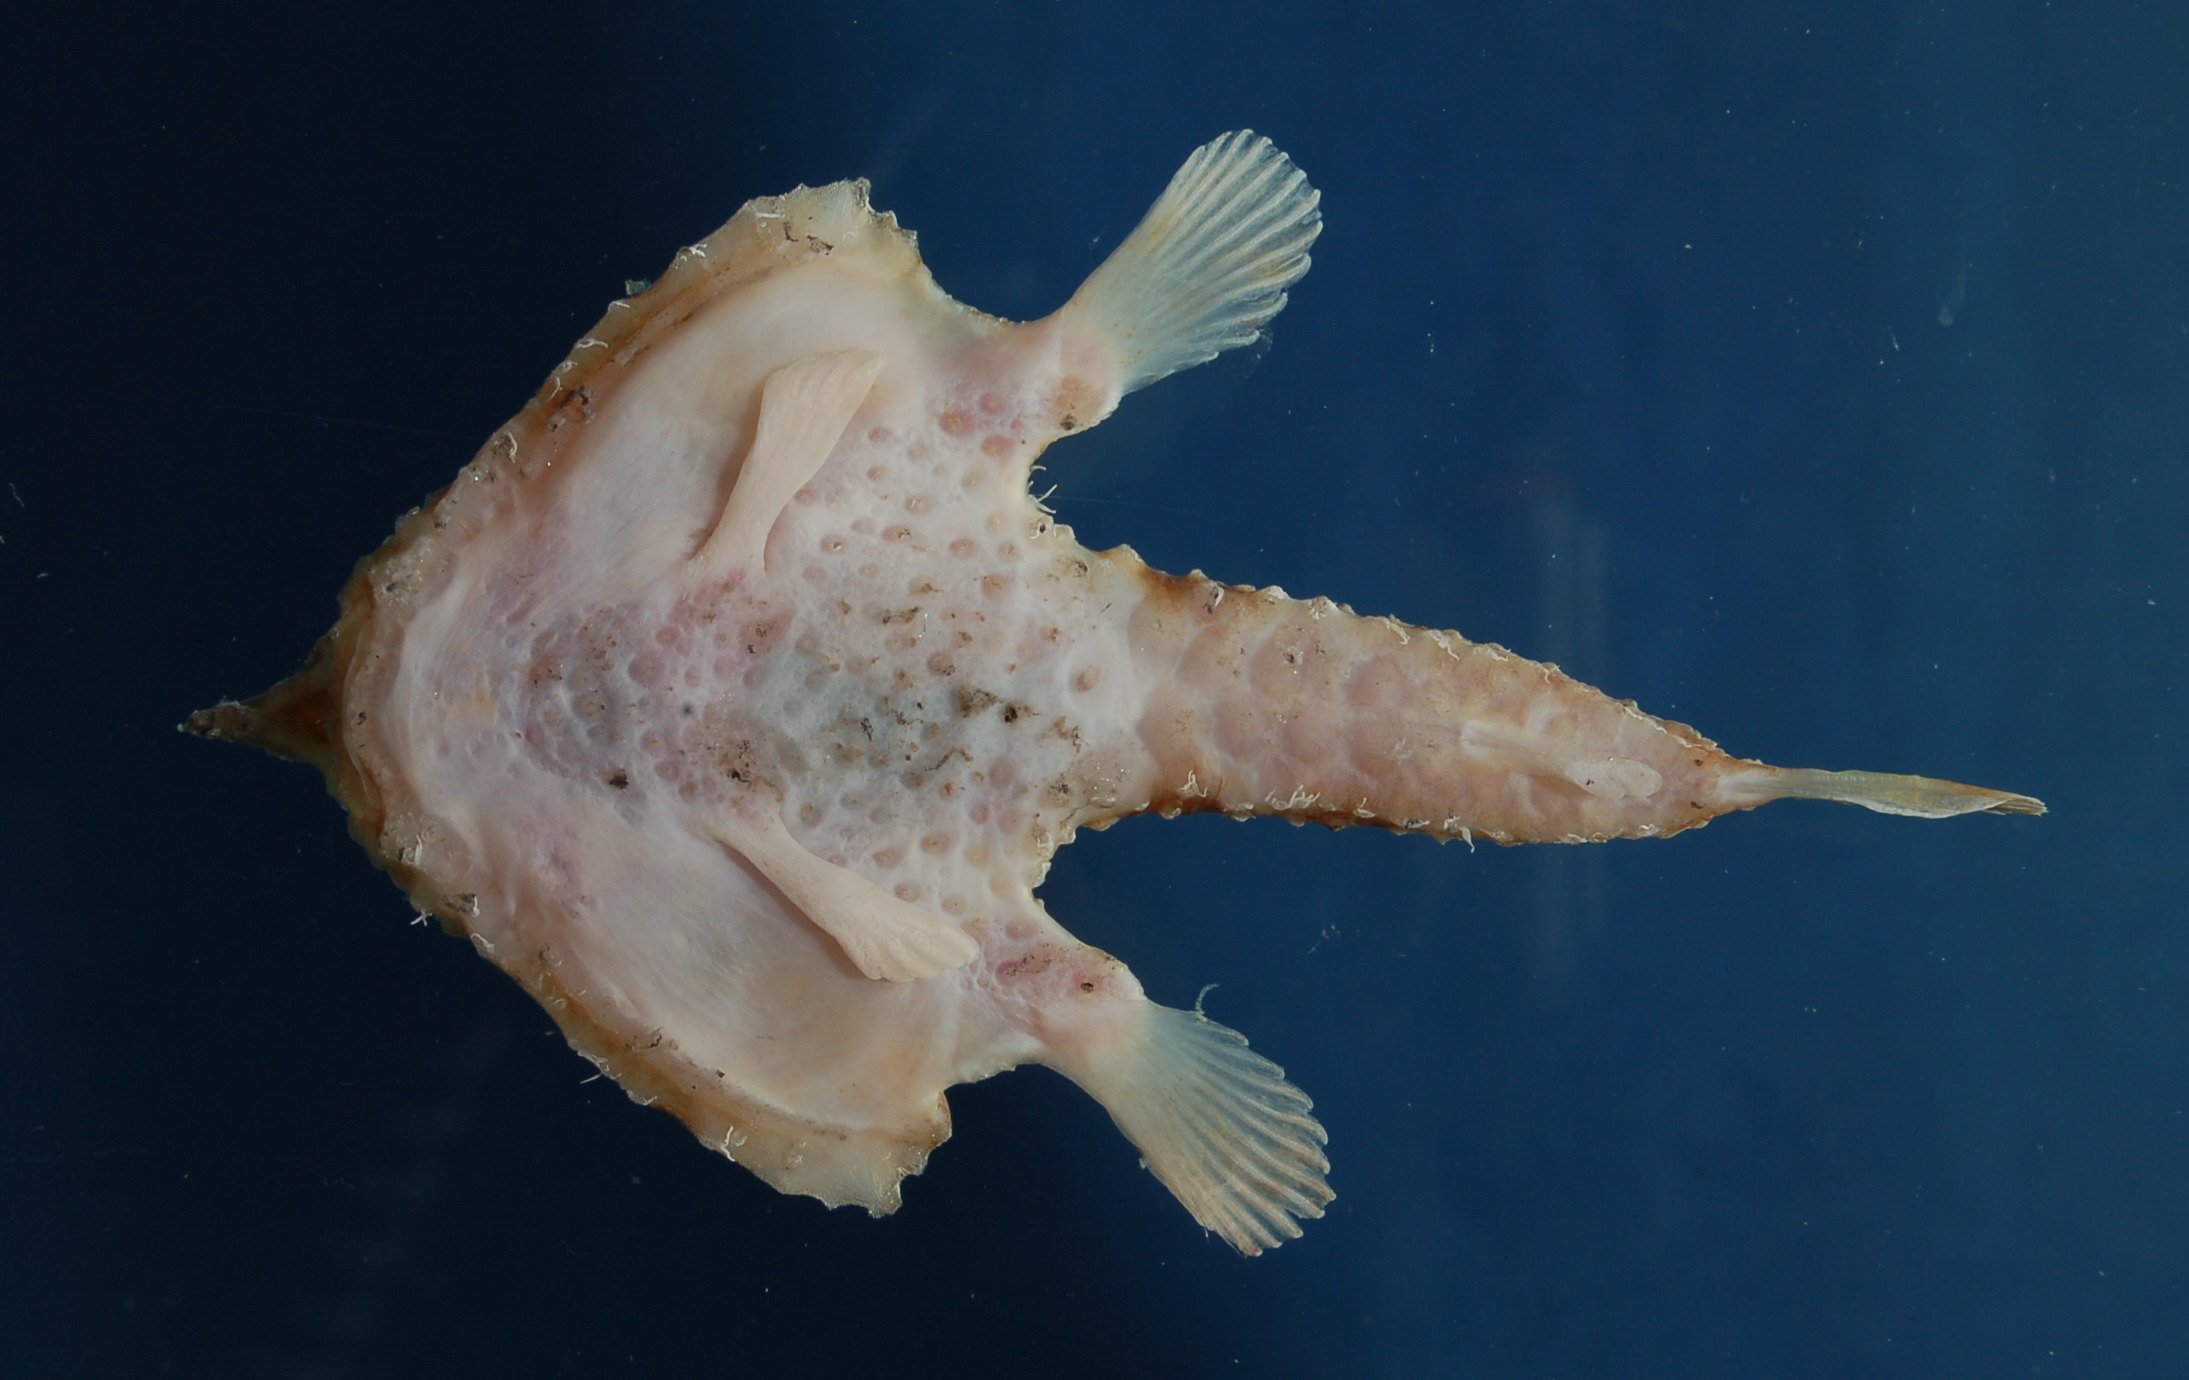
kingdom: Animalia
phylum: Chordata
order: Lophiiformes
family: Ogcocephalidae
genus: Malthopsis
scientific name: Malthopsis austrafricana
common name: South african triangular batfish
